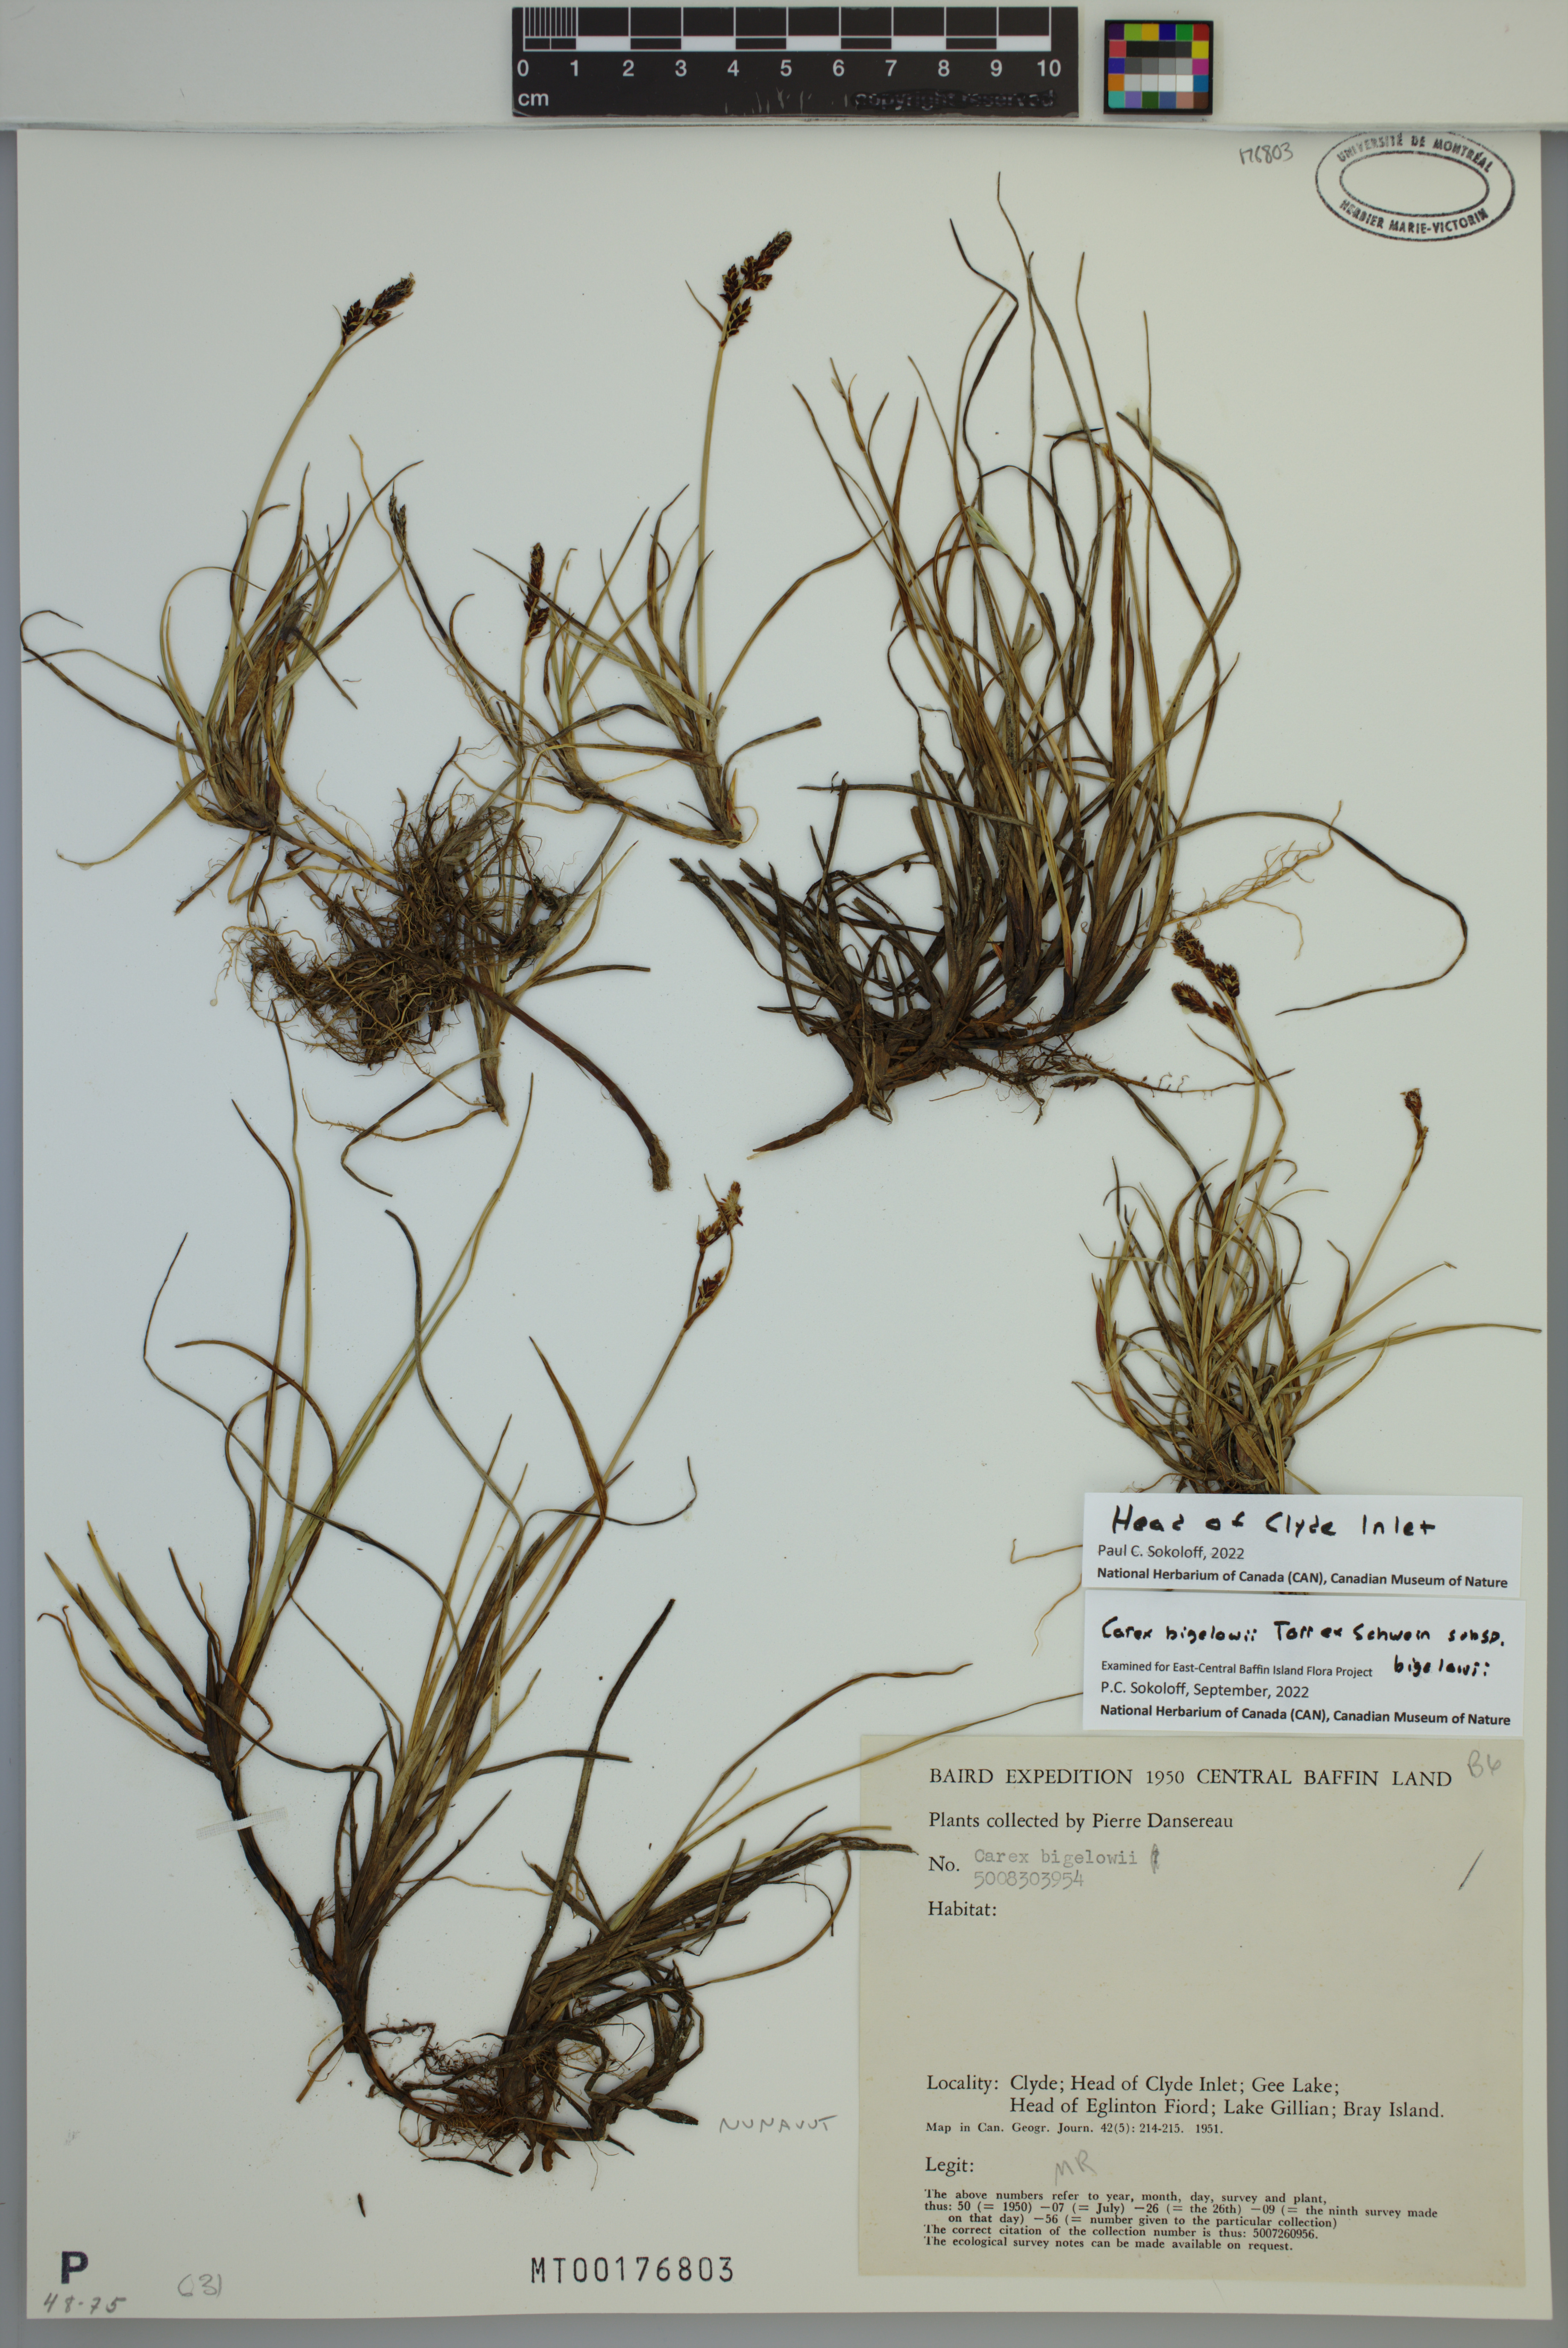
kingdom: Plantae
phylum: Tracheophyta
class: Liliopsida
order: Poales
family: Cyperaceae
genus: Carex
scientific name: Carex bigelowii
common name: Stiff sedge
